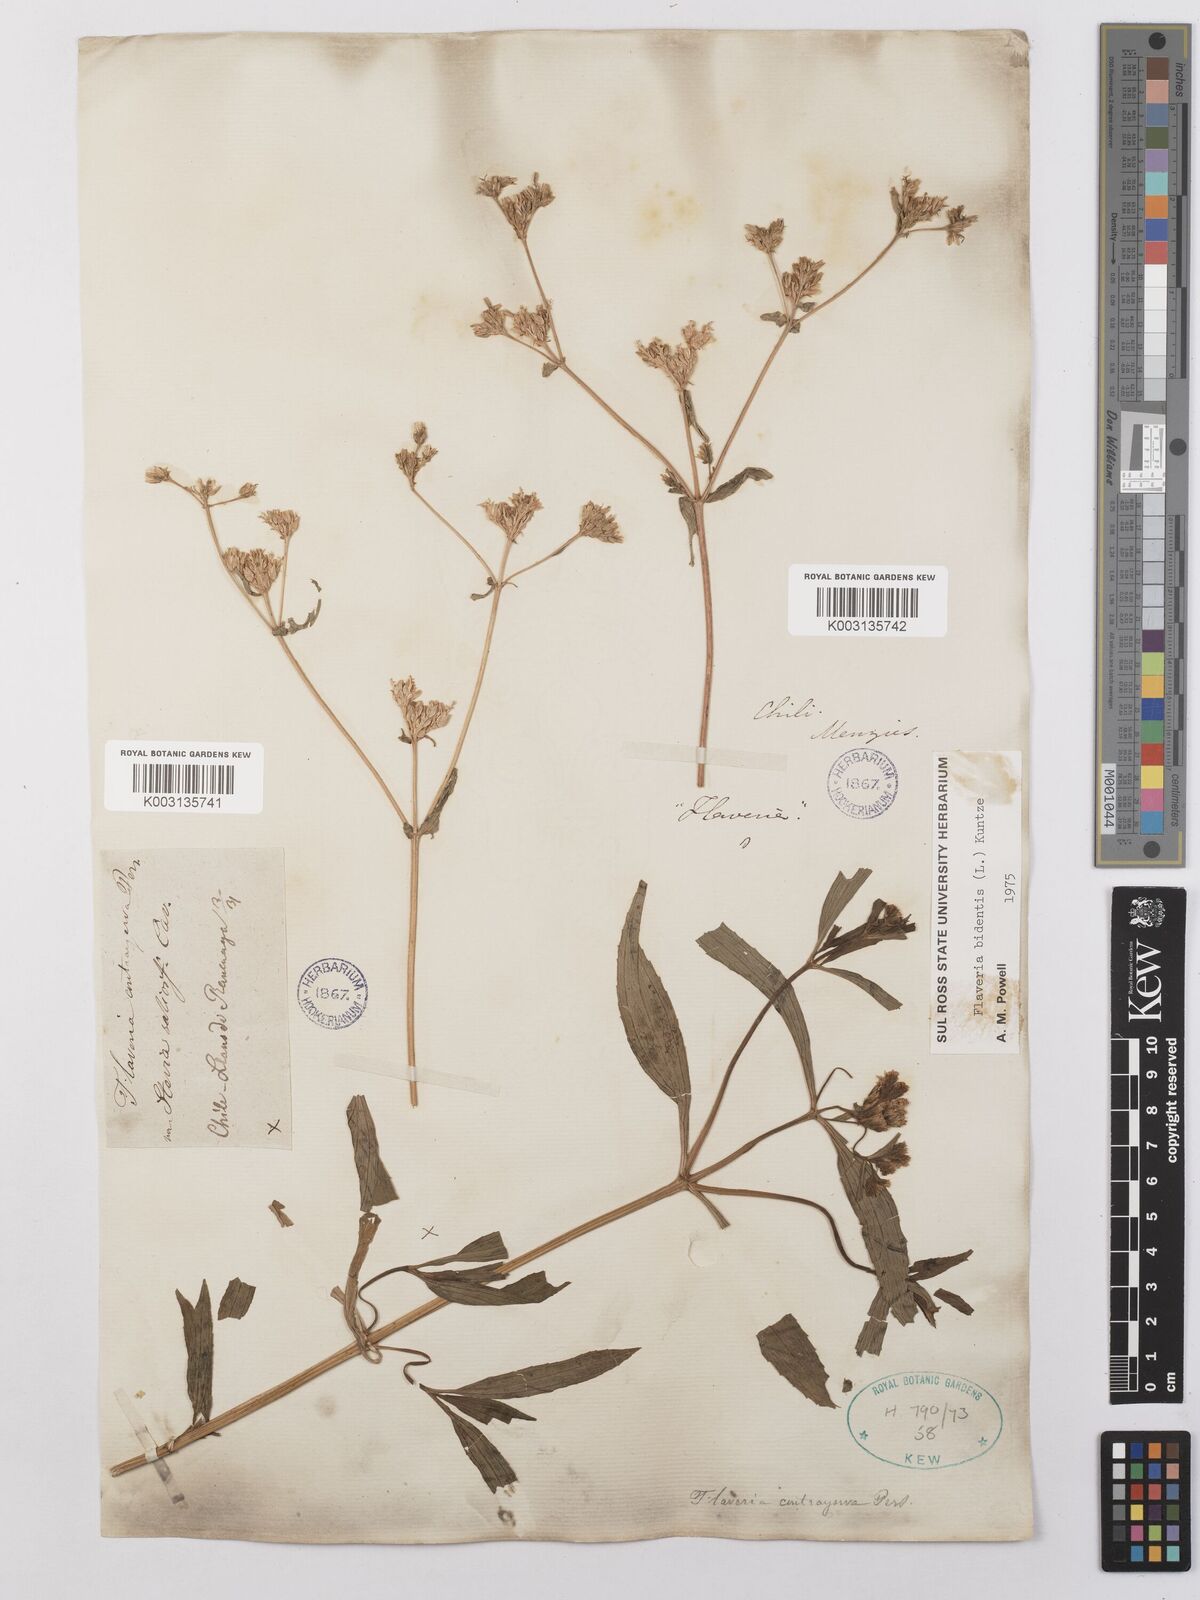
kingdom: Plantae
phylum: Tracheophyta
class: Magnoliopsida
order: Asterales
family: Asteraceae
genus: Flaveria
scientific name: Flaveria bidentis
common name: Coastal plain yellowtops
